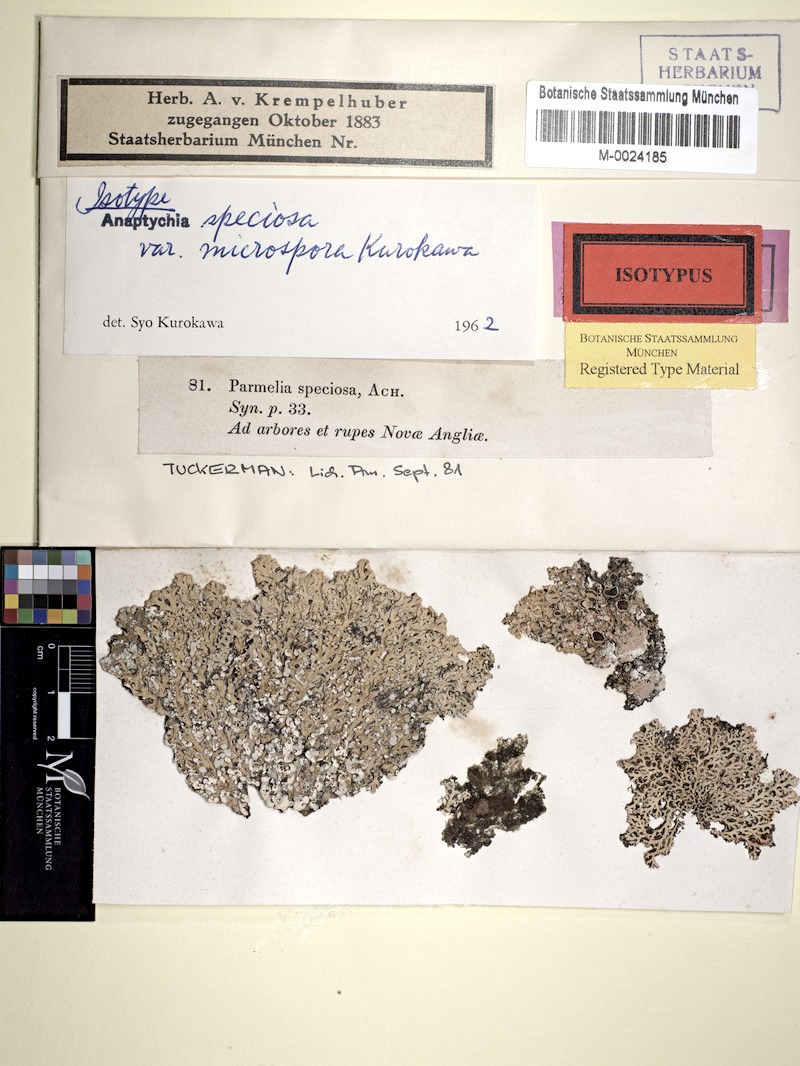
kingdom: Fungi
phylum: Ascomycota
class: Lecanoromycetes
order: Caliciales
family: Physciaceae
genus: Heterodermia
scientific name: Heterodermia speciosa
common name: Powdered fringe lichen
